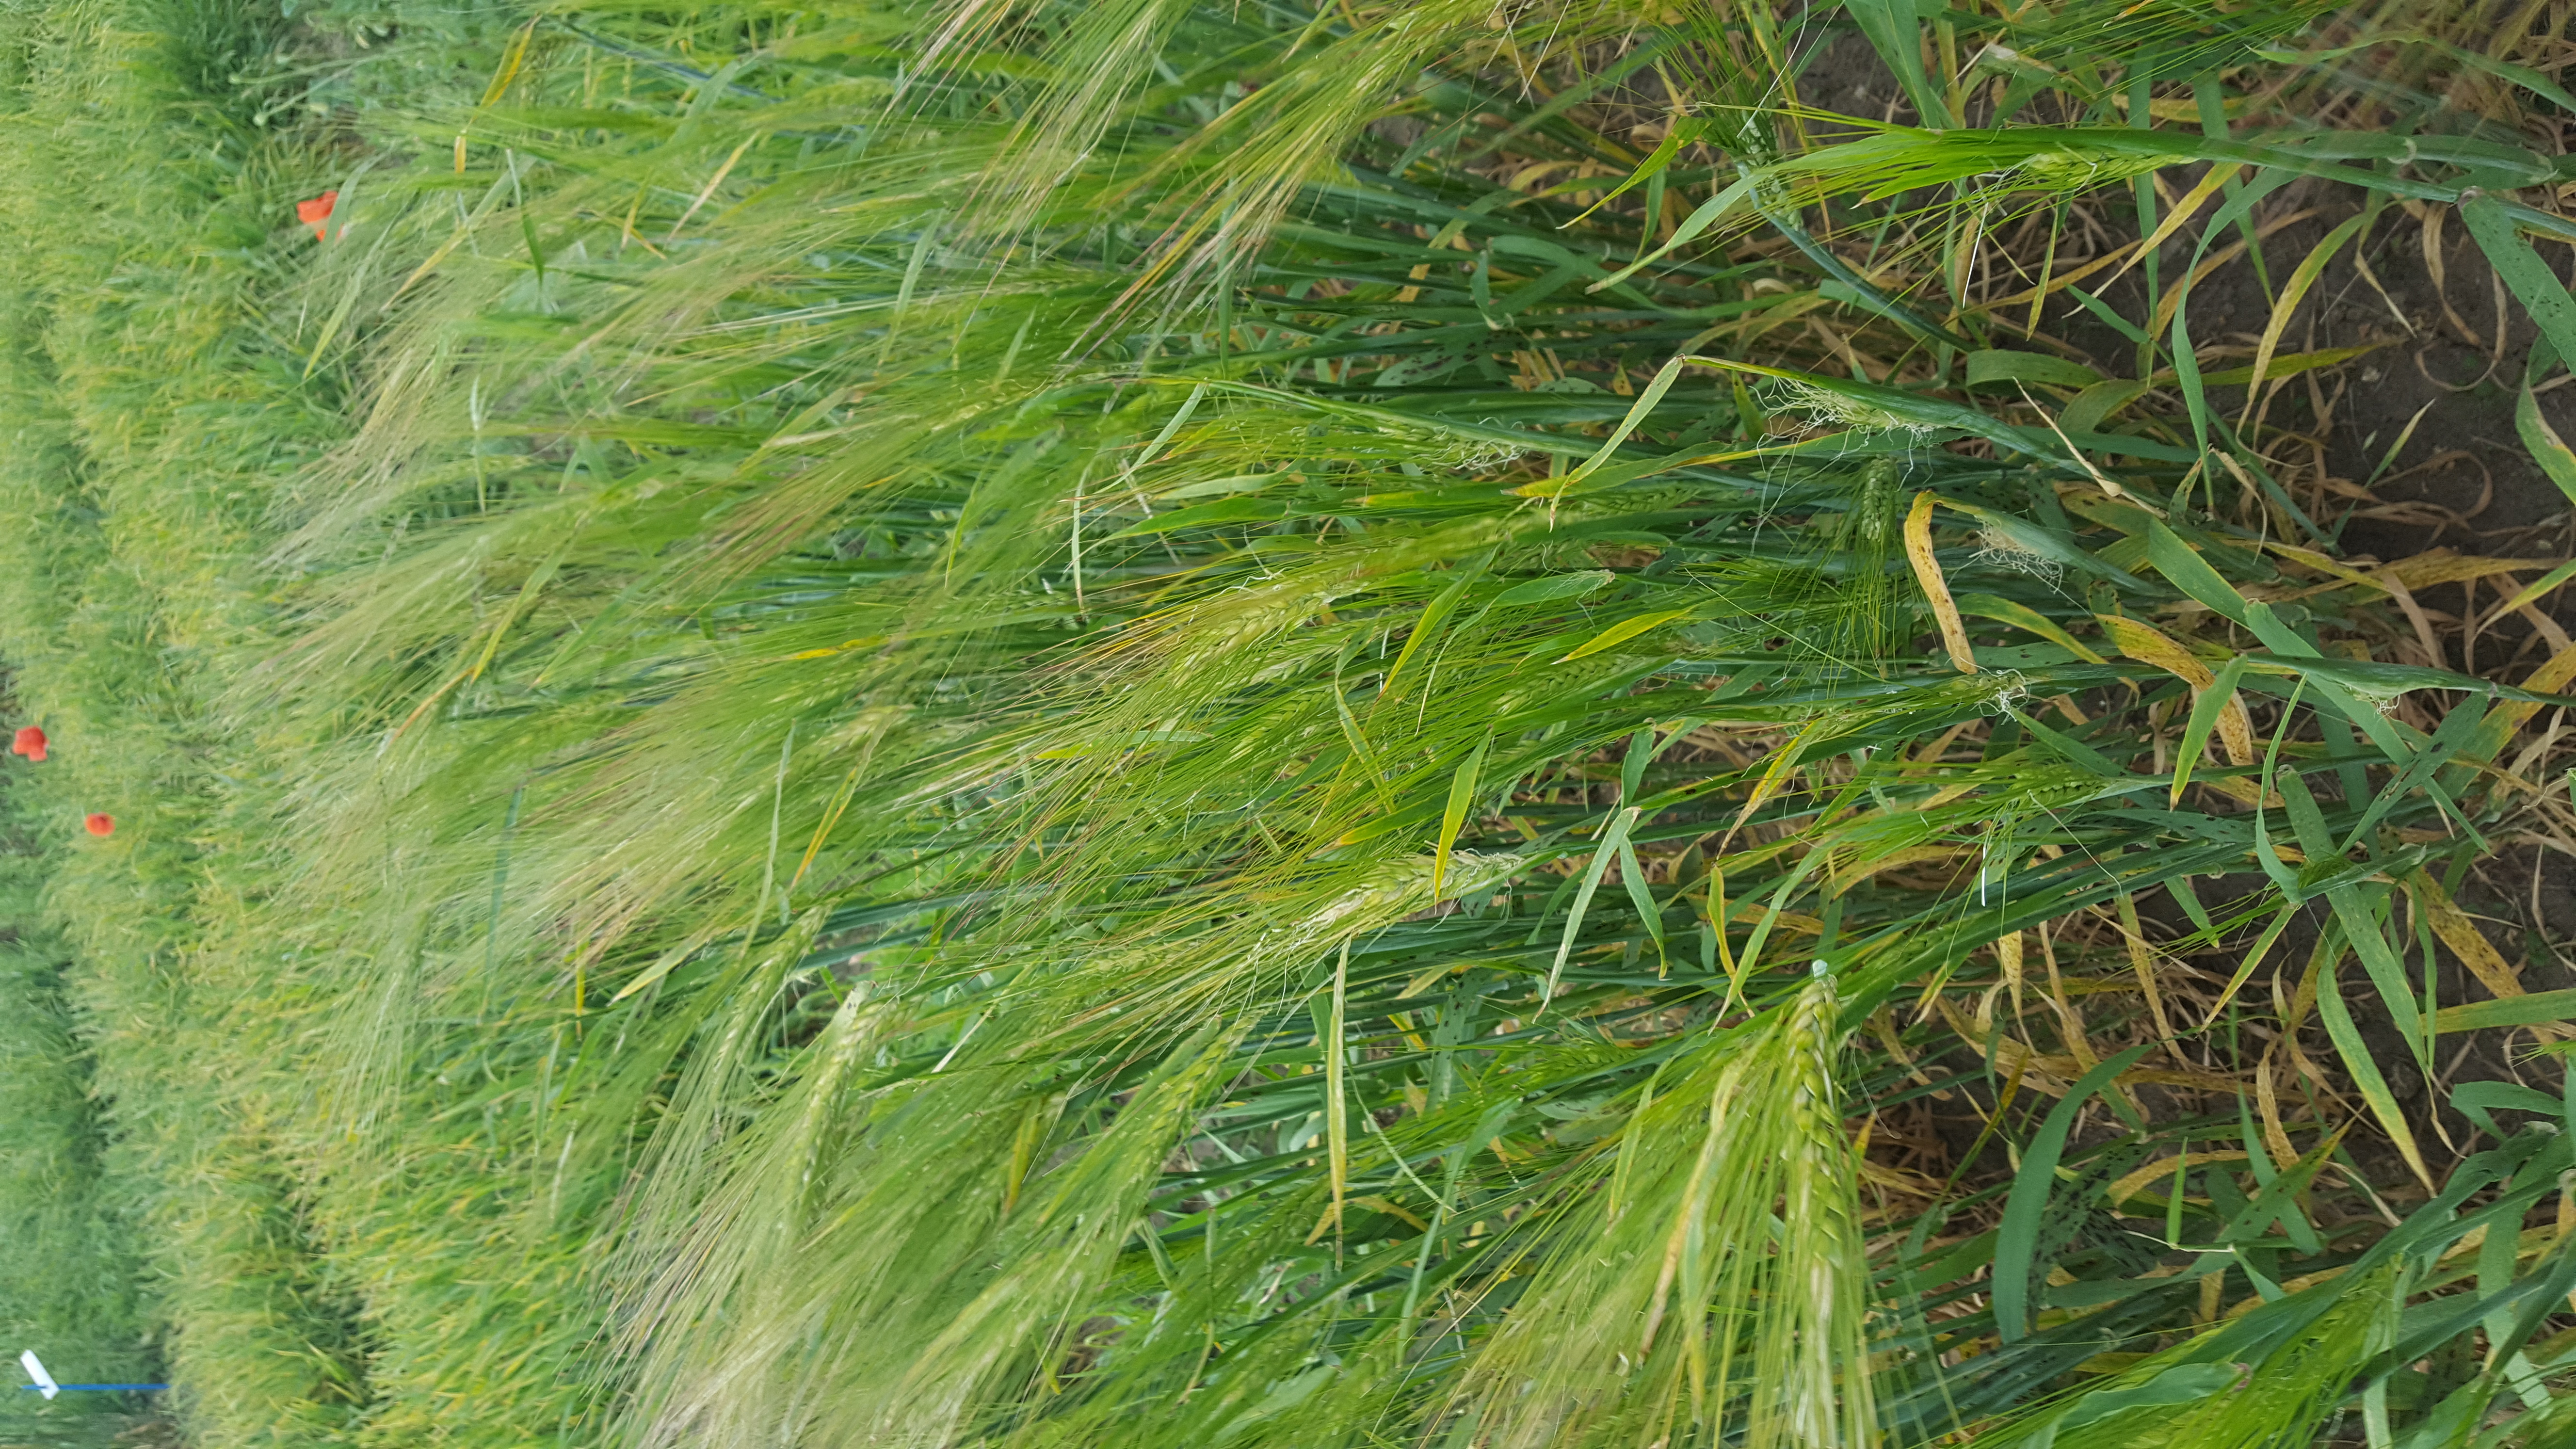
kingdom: Plantae
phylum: Tracheophyta
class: Liliopsida
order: Poales
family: Poaceae
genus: Hordeum
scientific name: Hordeum vulgare
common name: Common barley
